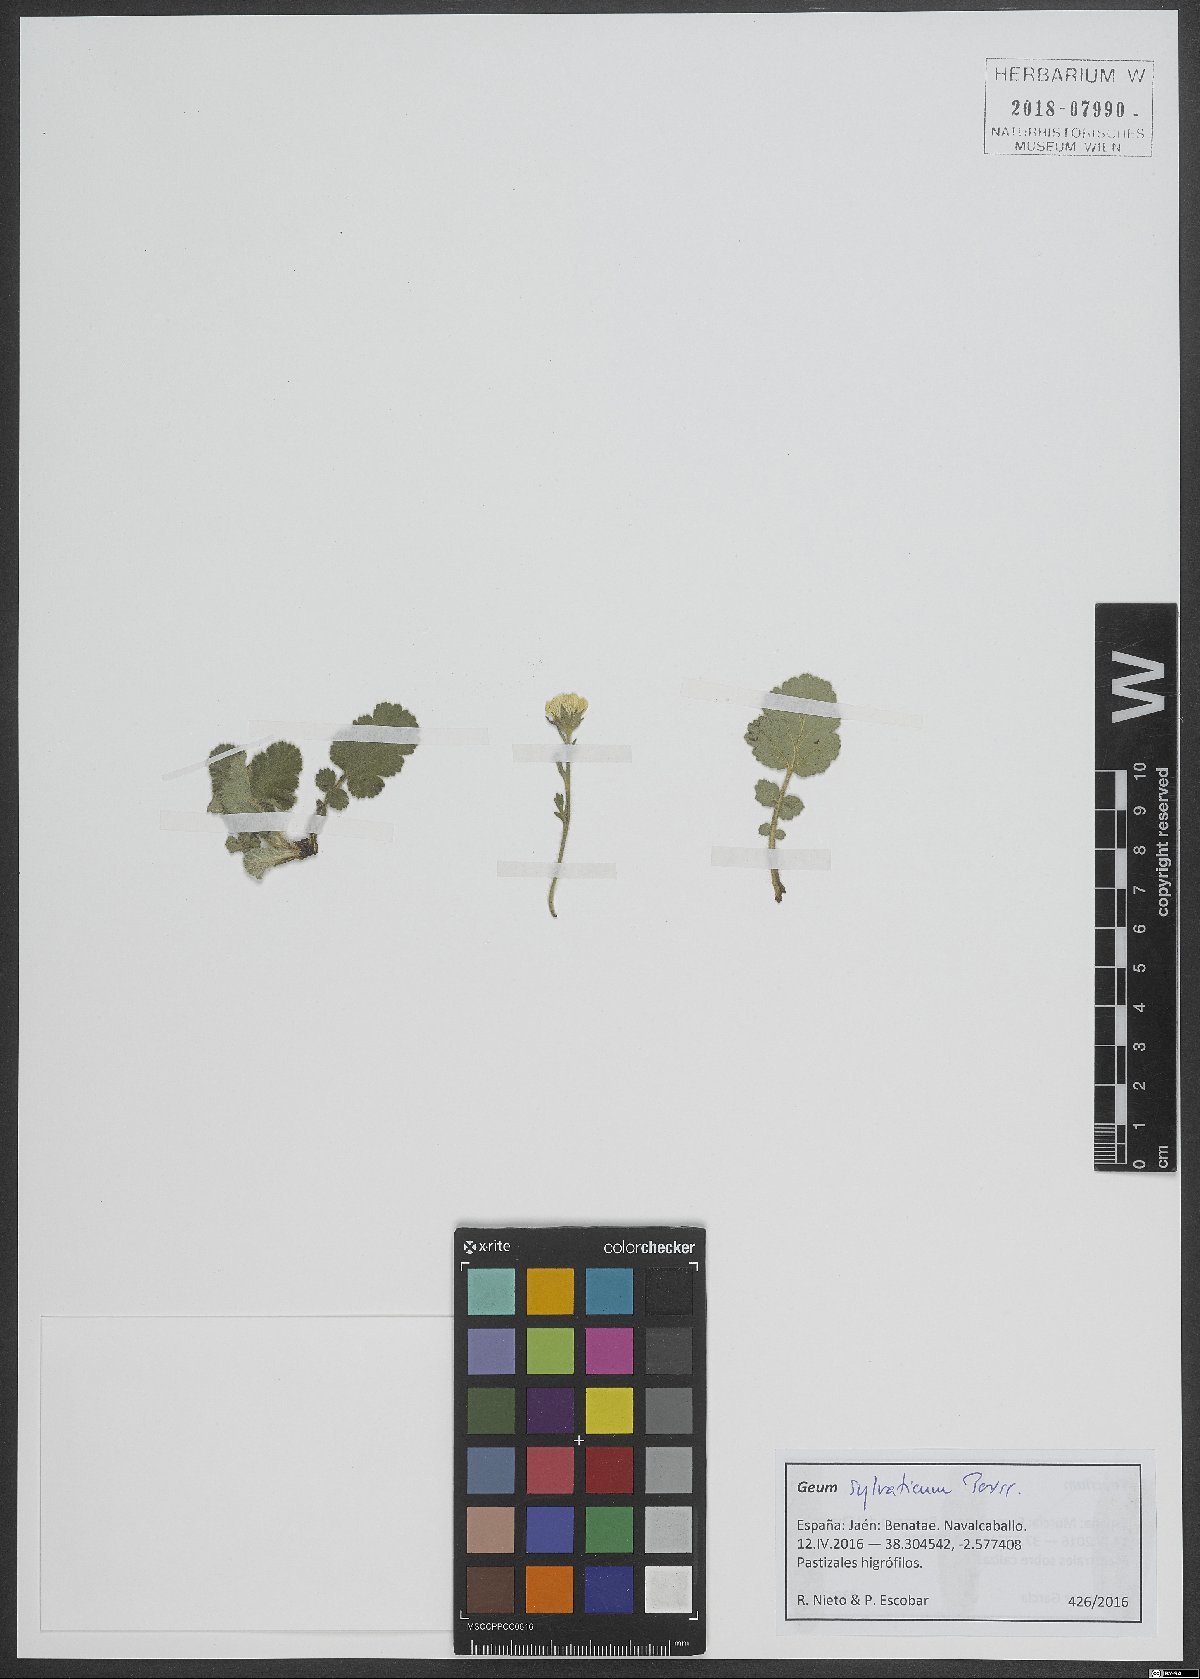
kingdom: Plantae
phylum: Tracheophyta
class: Magnoliopsida
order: Rosales
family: Rosaceae
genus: Geum
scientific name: Geum sylvaticum
